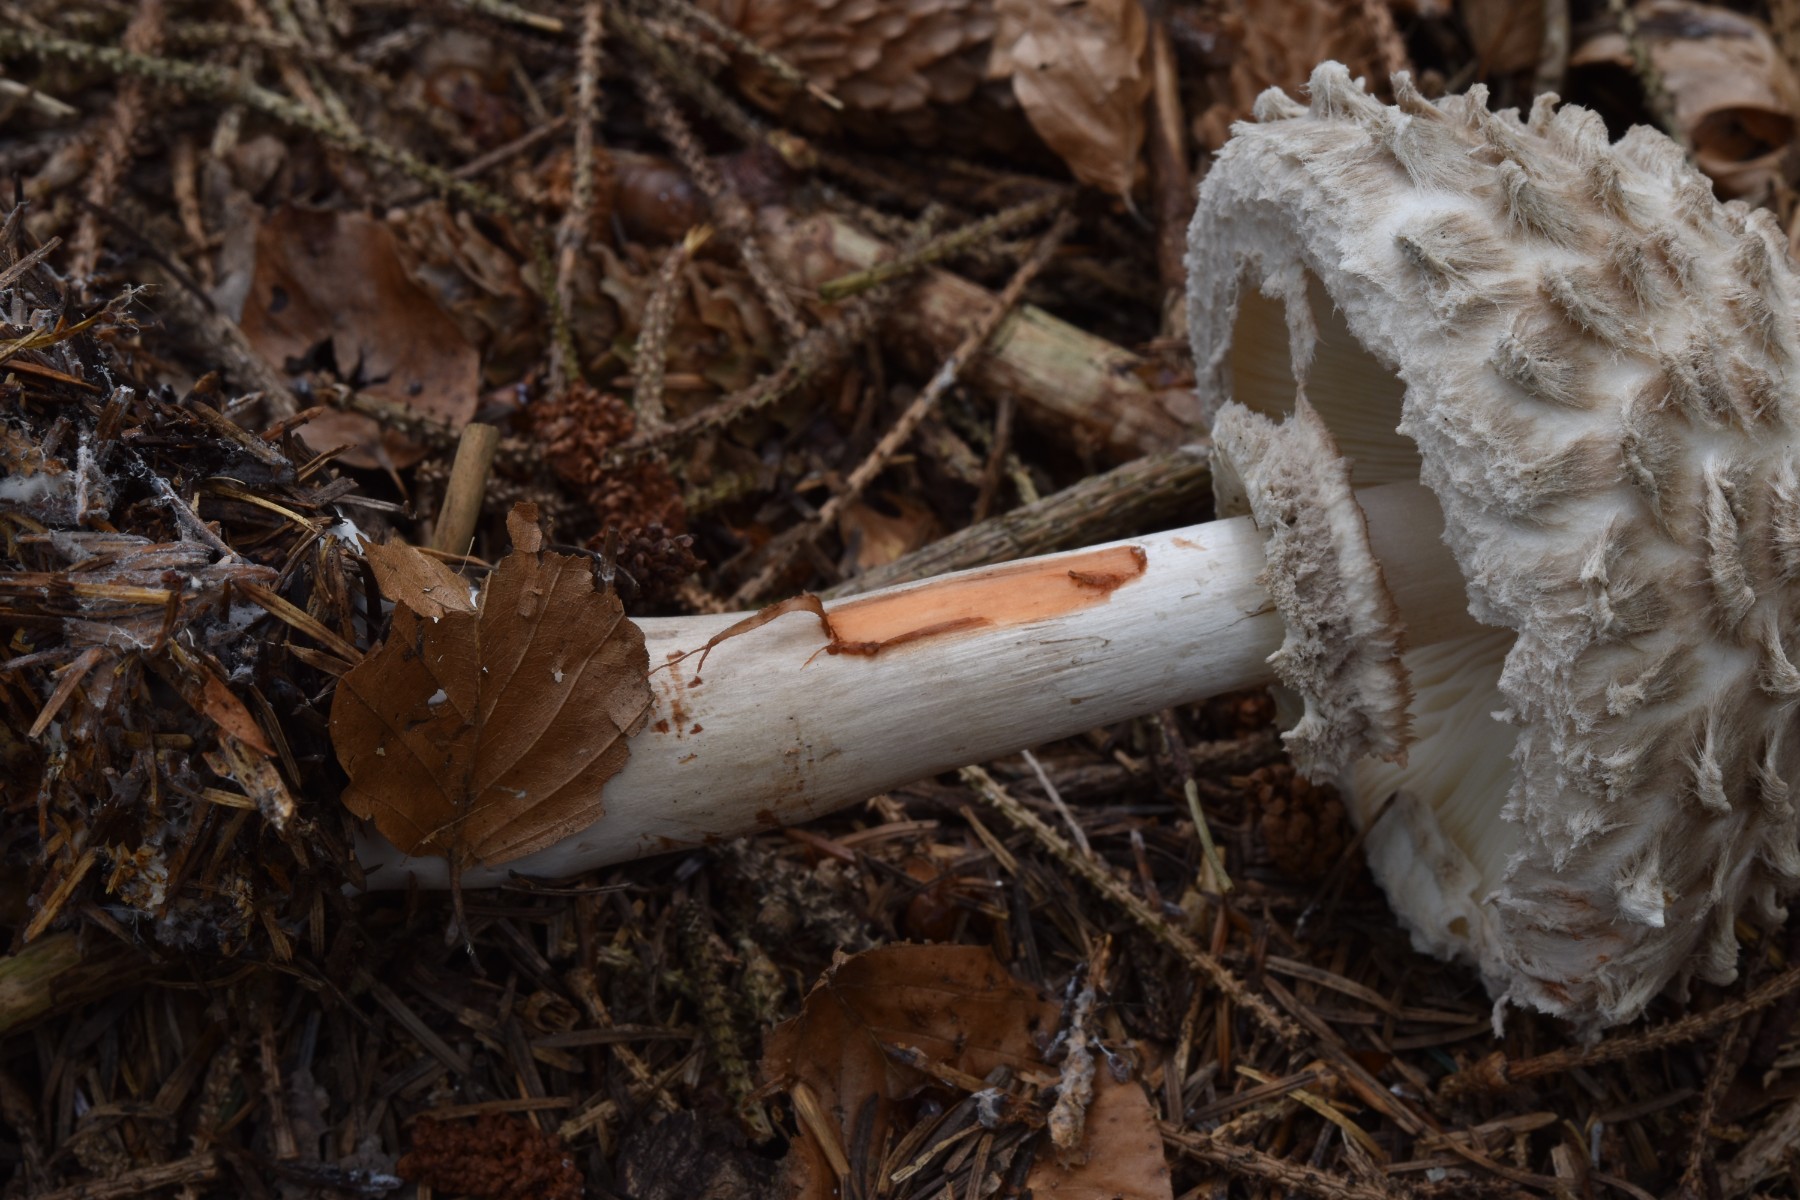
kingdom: Fungi
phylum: Basidiomycota
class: Agaricomycetes
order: Agaricales
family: Agaricaceae
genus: Chlorophyllum
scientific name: Chlorophyllum olivieri
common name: almindelig rabarberhat
